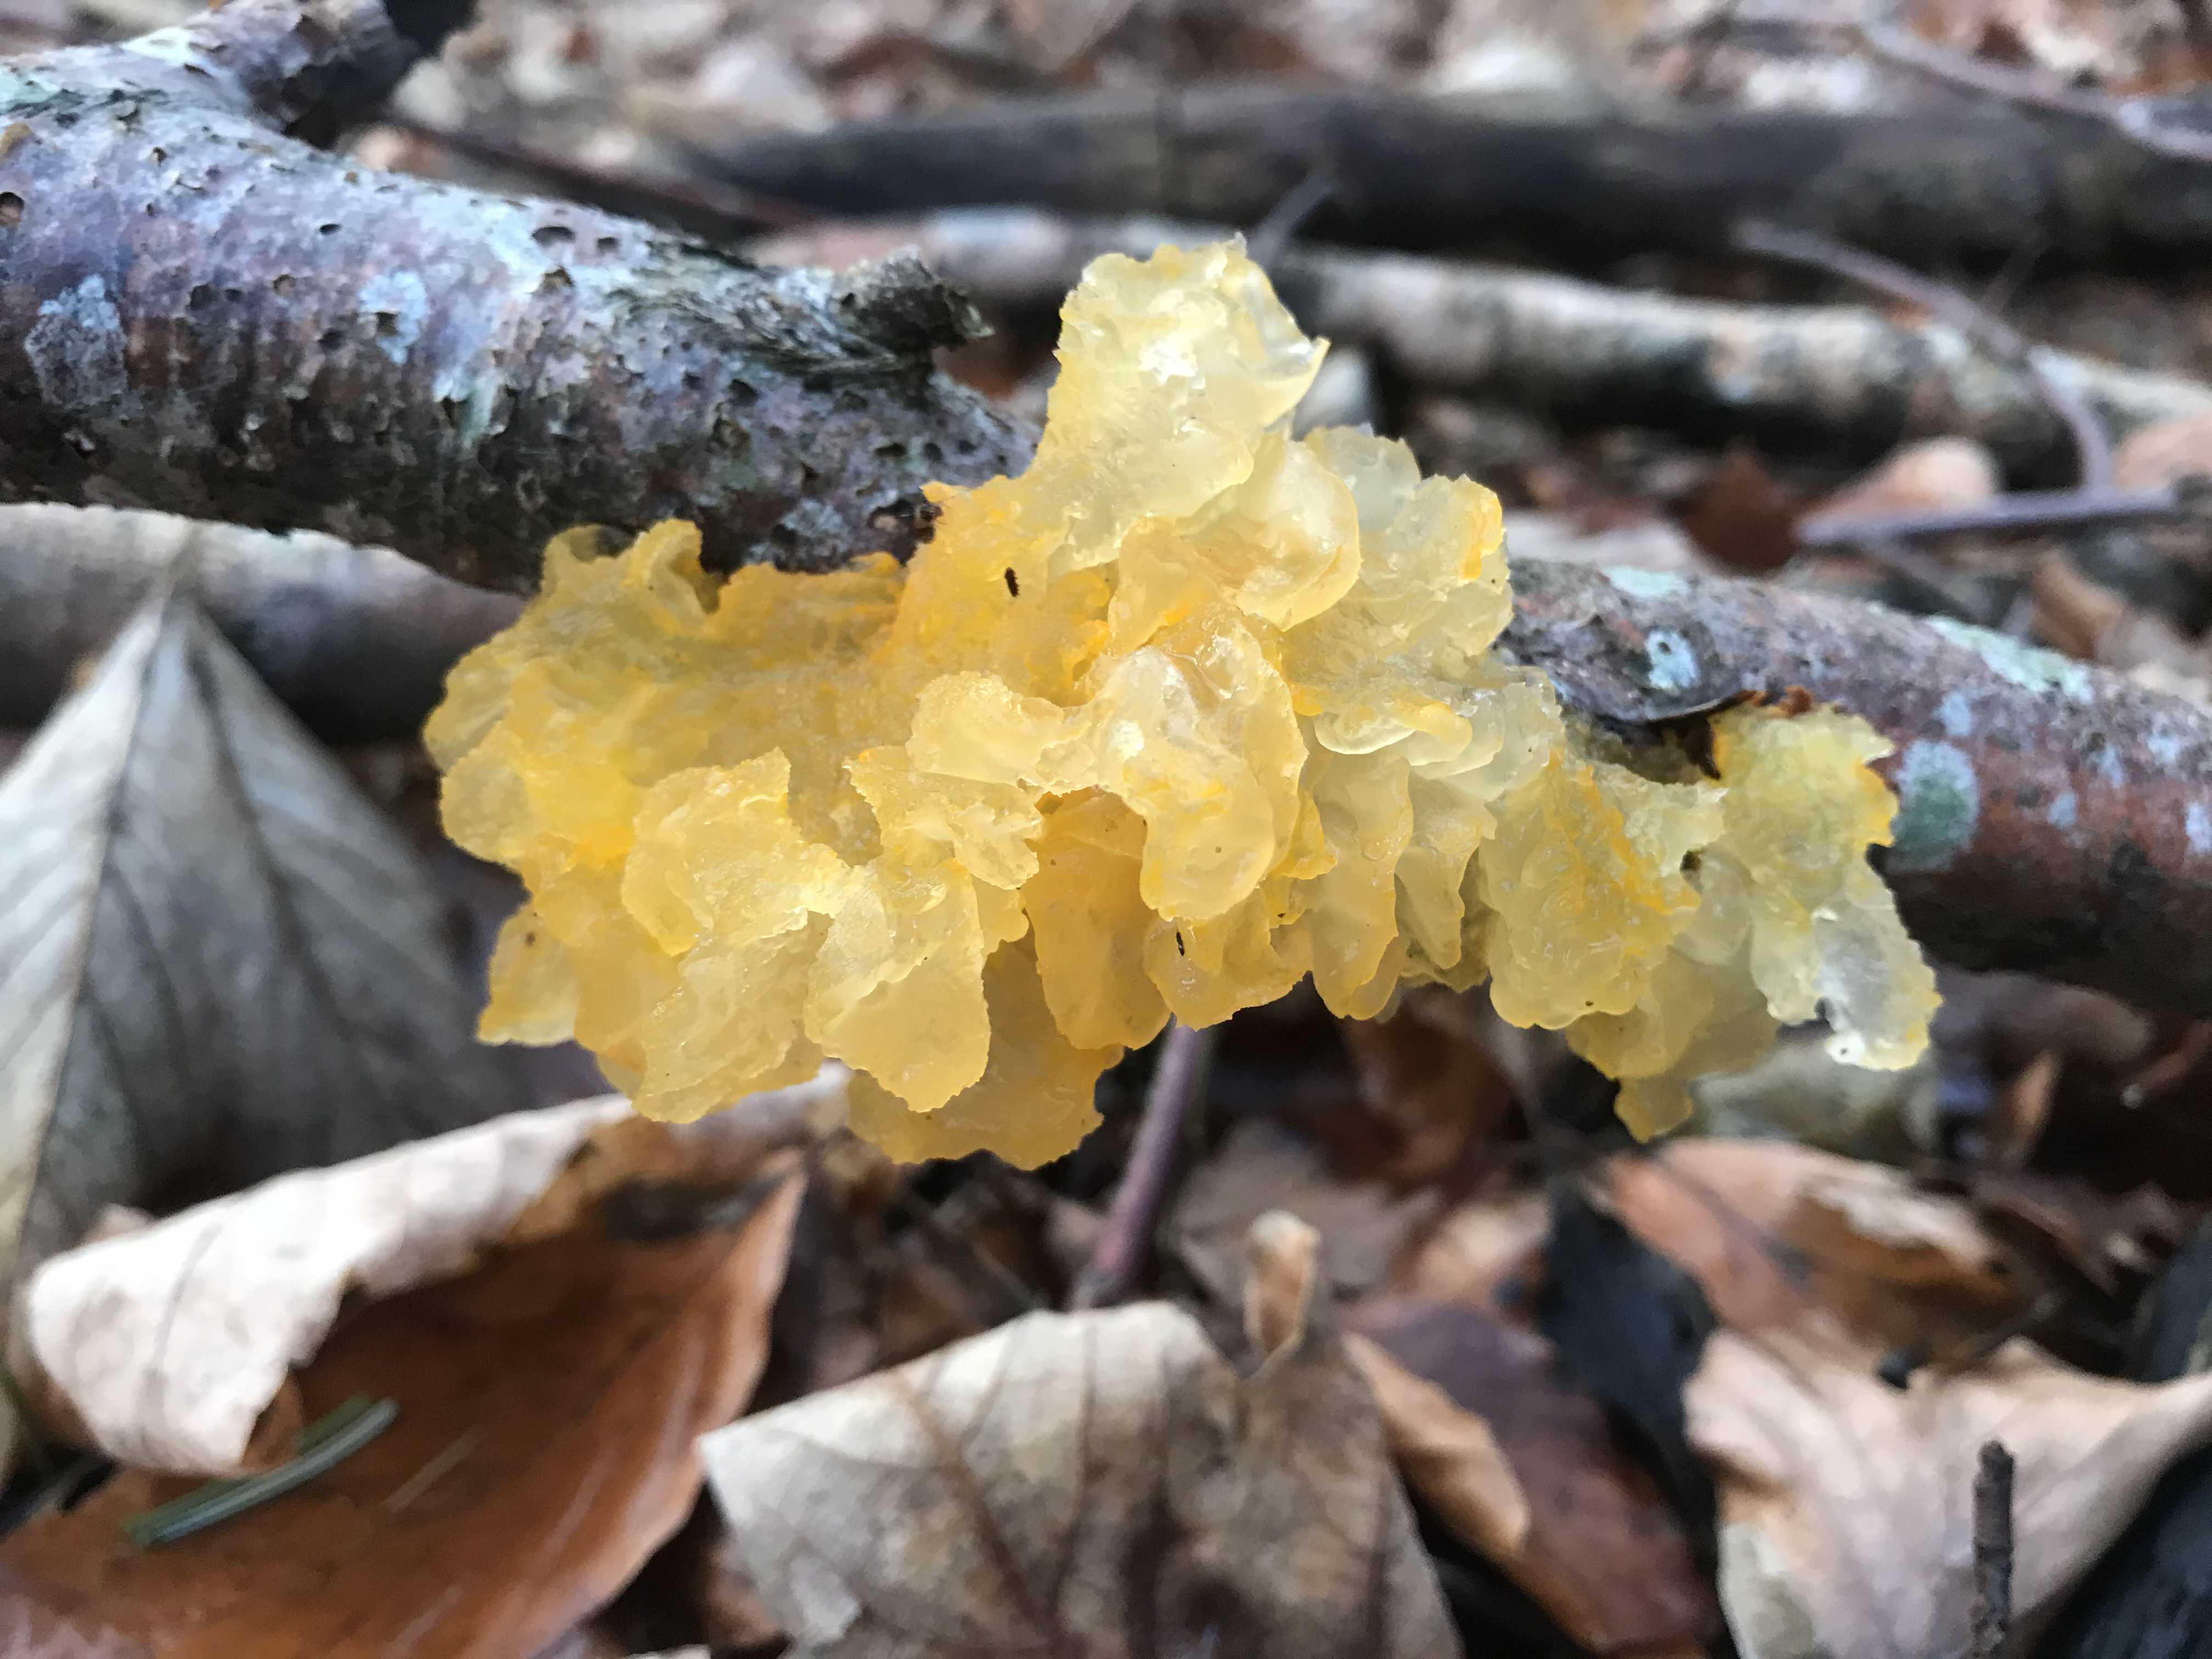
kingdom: Fungi
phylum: Basidiomycota
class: Tremellomycetes
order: Tremellales
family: Tremellaceae
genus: Tremella
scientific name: Tremella mesenterica
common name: gul bævresvamp
